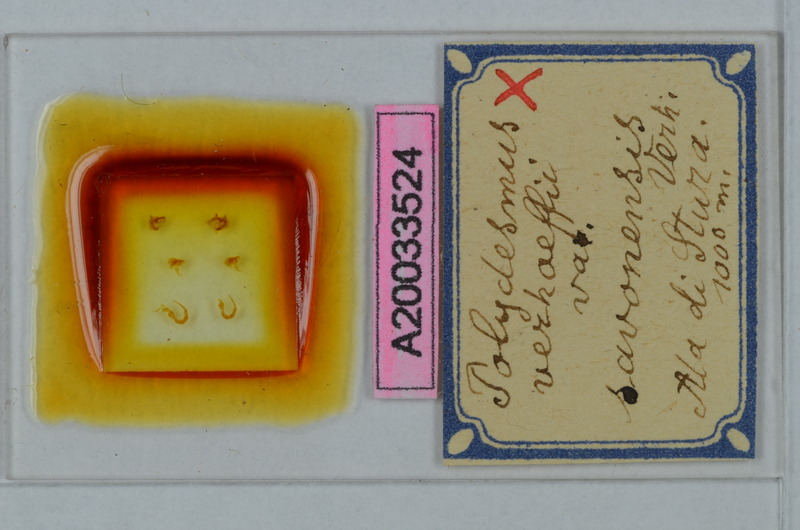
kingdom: Animalia
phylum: Arthropoda
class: Diplopoda
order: Polydesmida
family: Polydesmidae
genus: Polydesmus
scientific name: Polydesmus angustus
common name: Flat millipede
